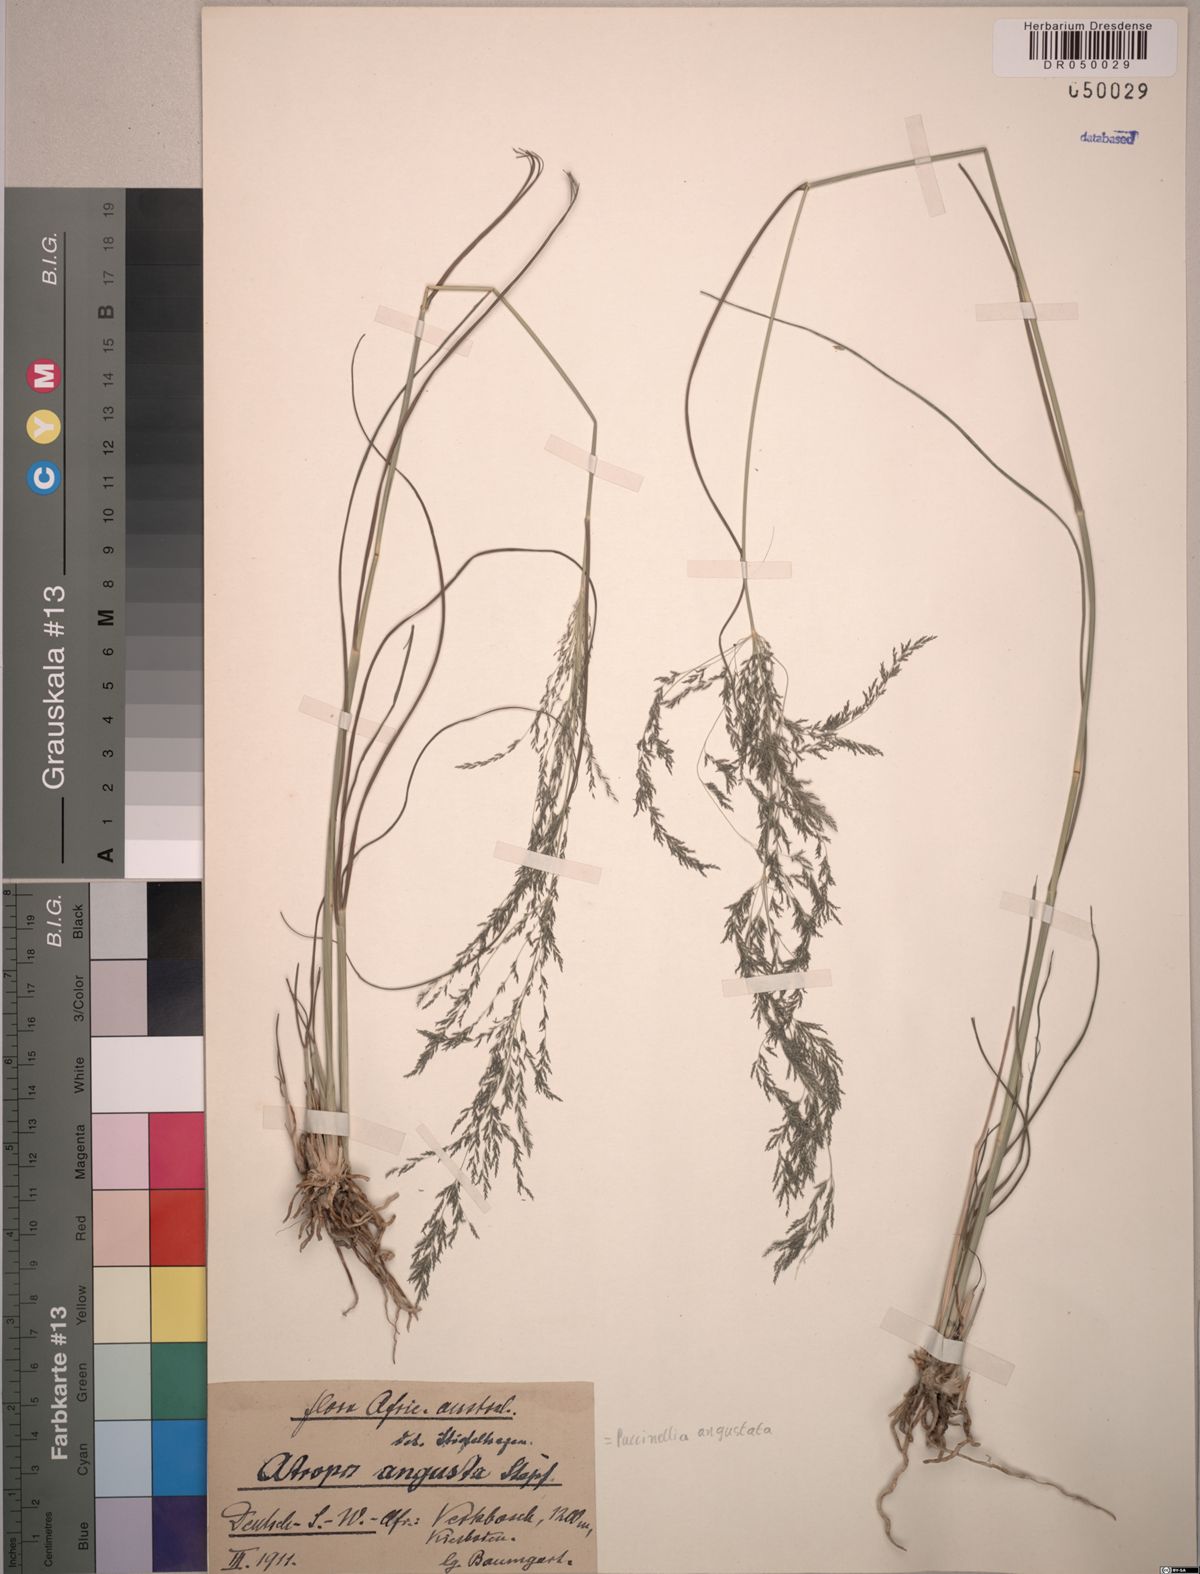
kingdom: Plantae
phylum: Tracheophyta
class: Liliopsida
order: Poales
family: Poaceae
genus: Puccinellia
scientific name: Puccinellia angustata
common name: Narrow alkaligrass
